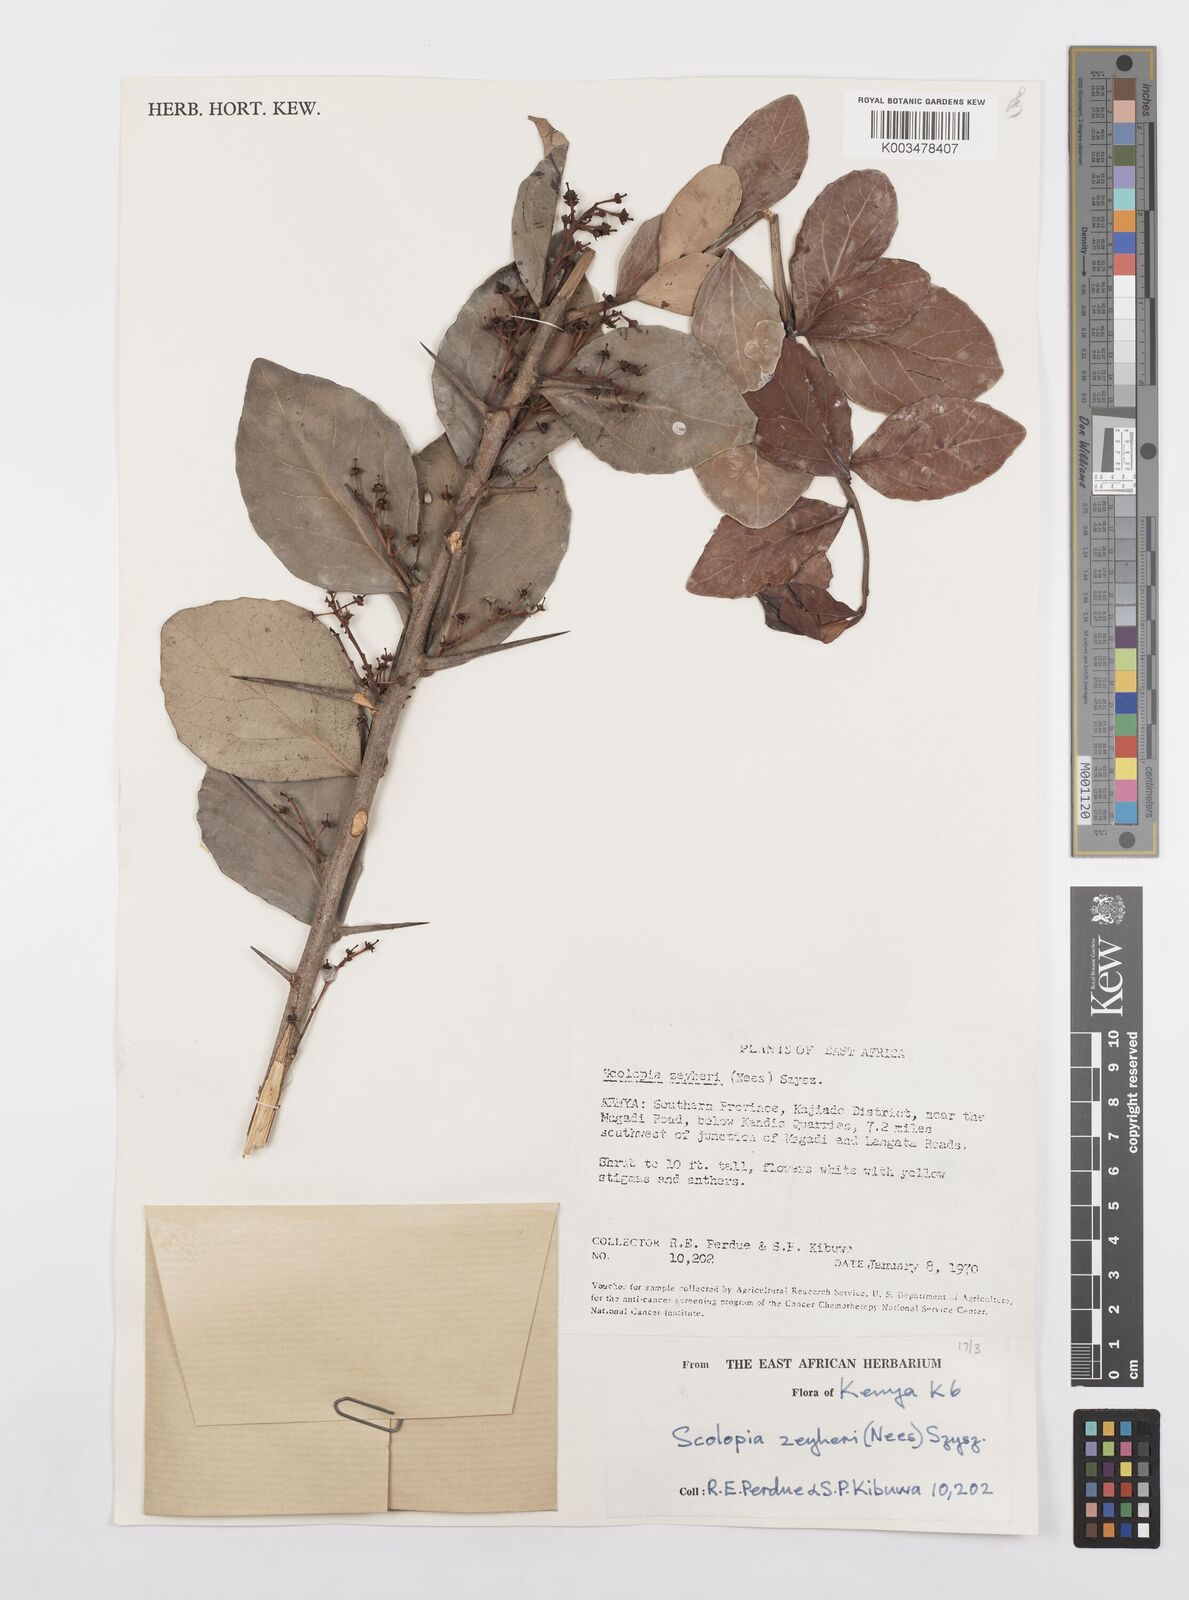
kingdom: Plantae
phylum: Tracheophyta
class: Magnoliopsida
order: Malpighiales
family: Salicaceae
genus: Scolopia
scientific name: Scolopia zeyheri
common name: Thorn pear
